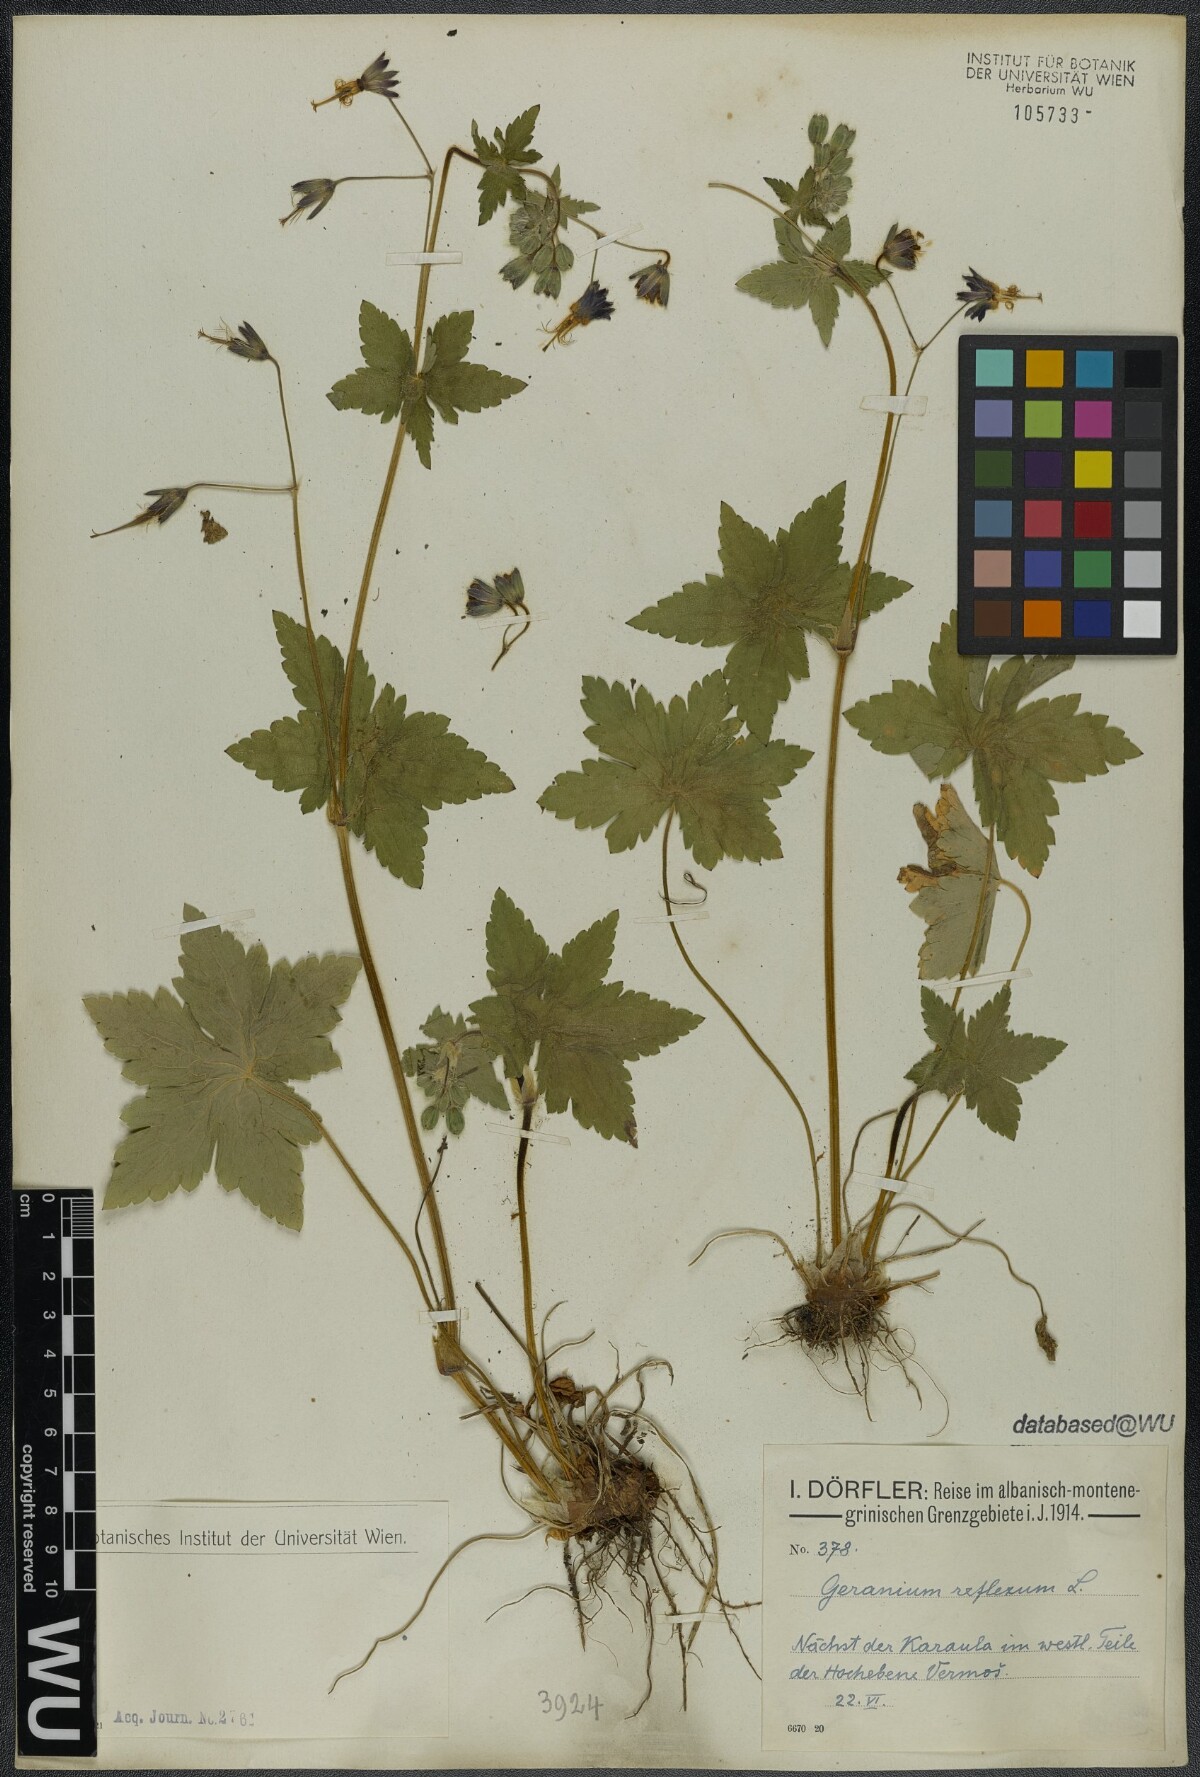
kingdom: Plantae
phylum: Tracheophyta
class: Magnoliopsida
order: Geraniales
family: Geraniaceae
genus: Geranium
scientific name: Geranium reflexum
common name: Reflexed crane's-bill
